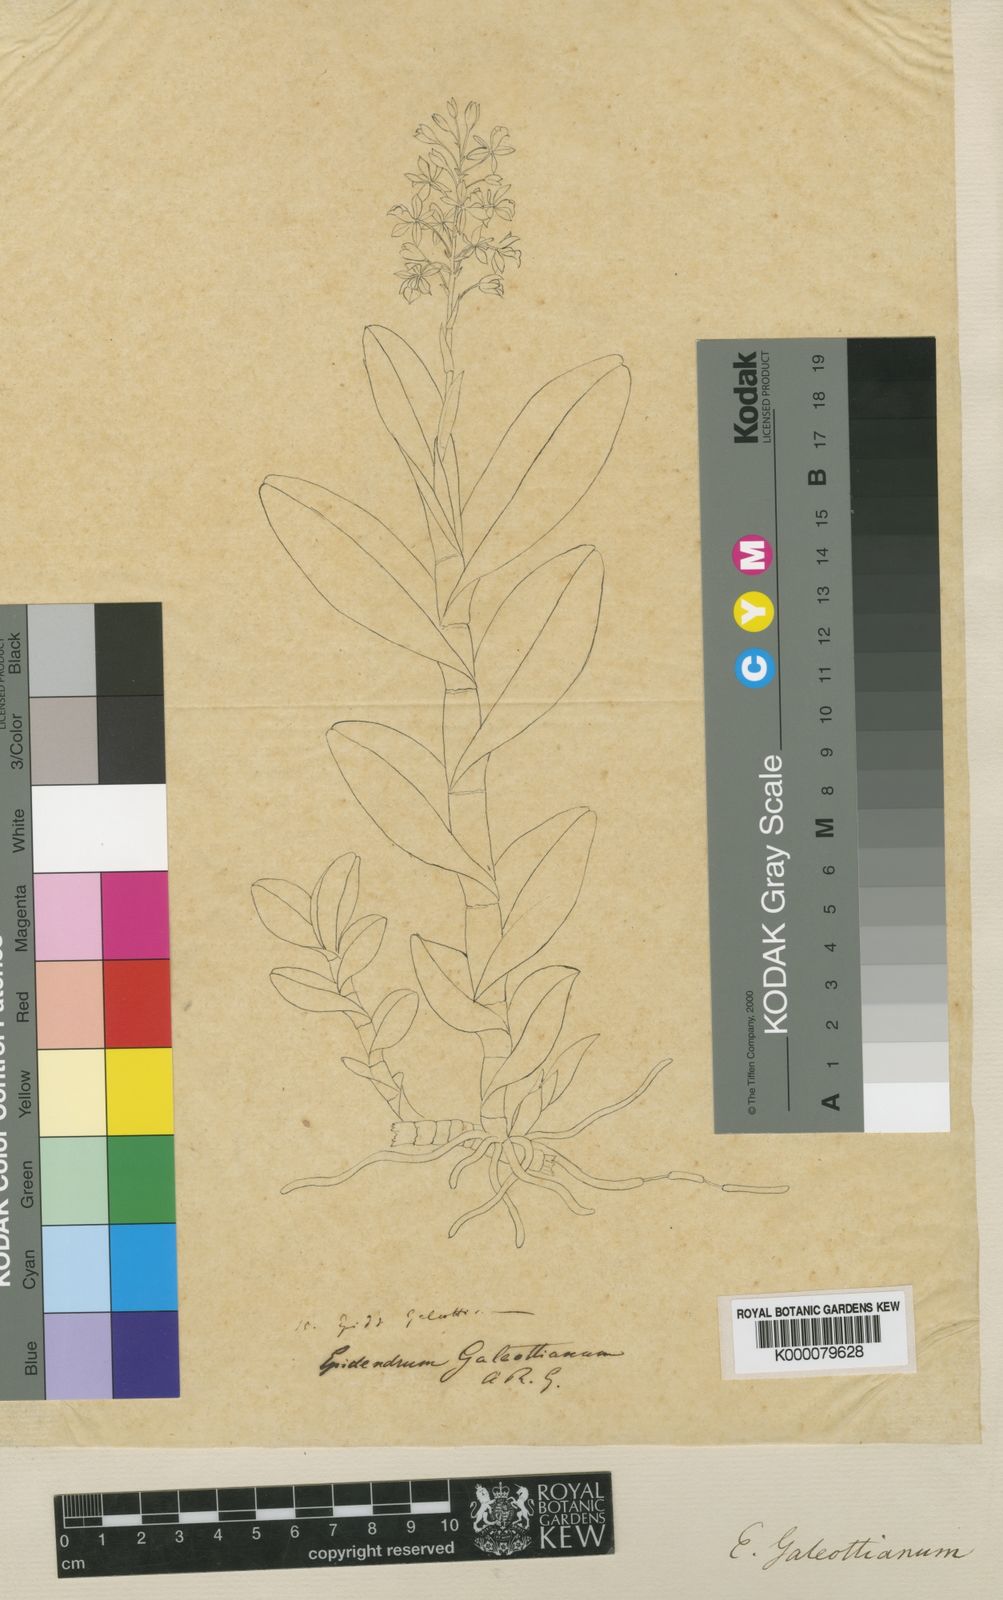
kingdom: Plantae
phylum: Tracheophyta
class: Liliopsida
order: Asparagales
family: Orchidaceae
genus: Epidendrum
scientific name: Epidendrum galeottianum
